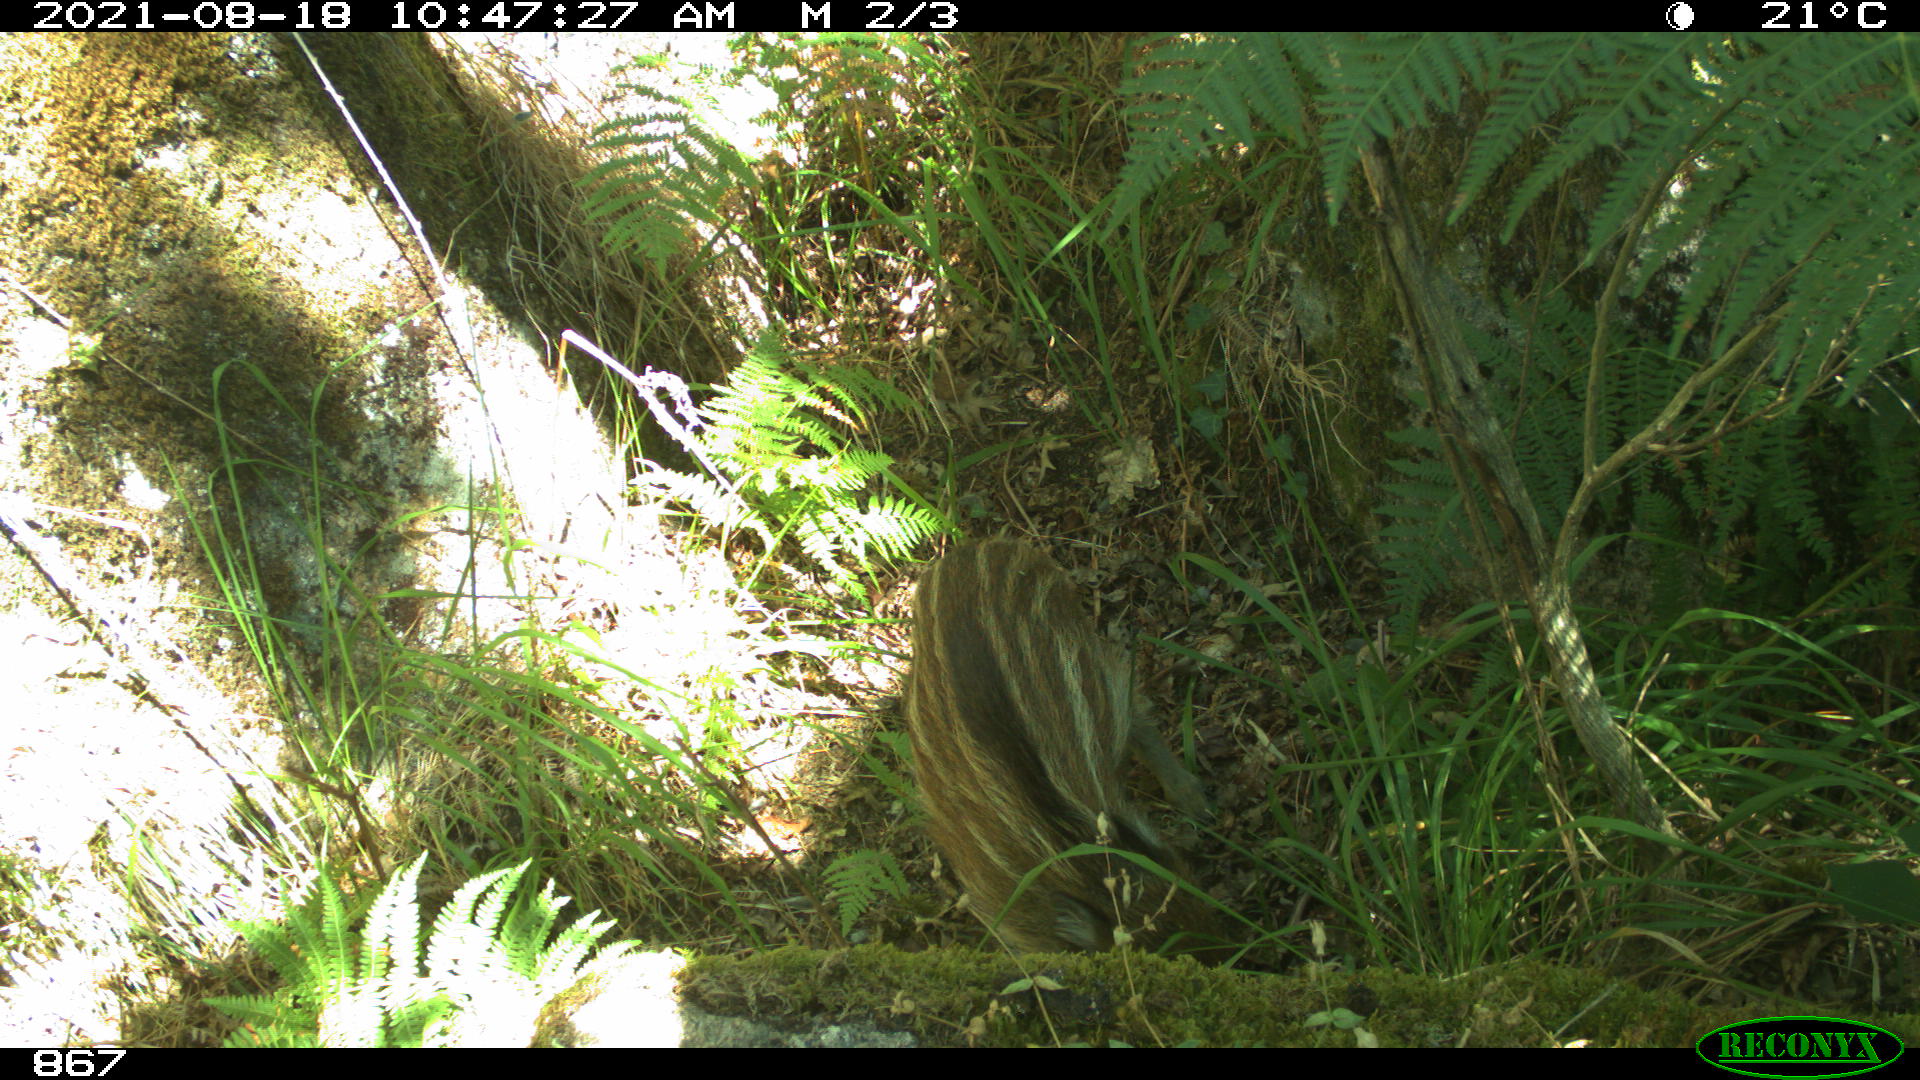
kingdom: Animalia
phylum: Chordata
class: Mammalia
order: Artiodactyla
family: Suidae
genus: Sus
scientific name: Sus scrofa
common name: Wild boar
